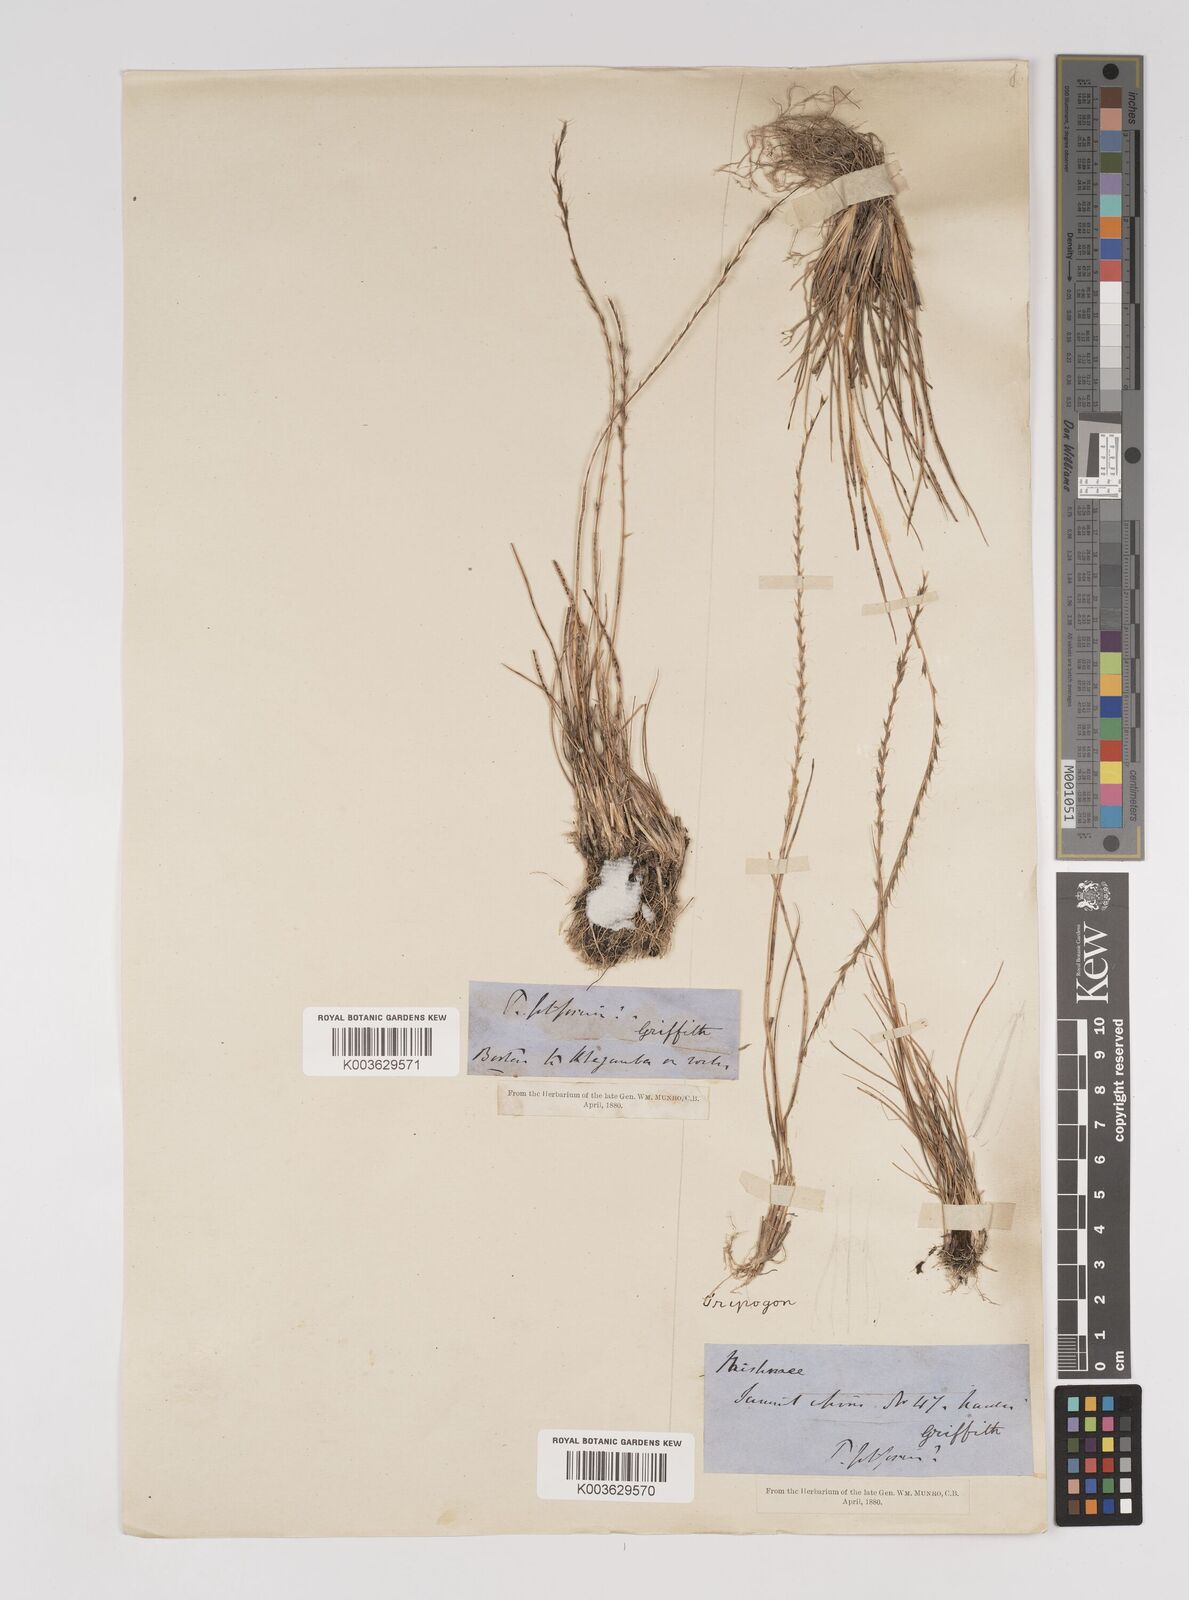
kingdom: Plantae
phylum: Tracheophyta
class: Liliopsida
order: Poales
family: Poaceae
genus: Tripogon
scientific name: Tripogon filiformis
